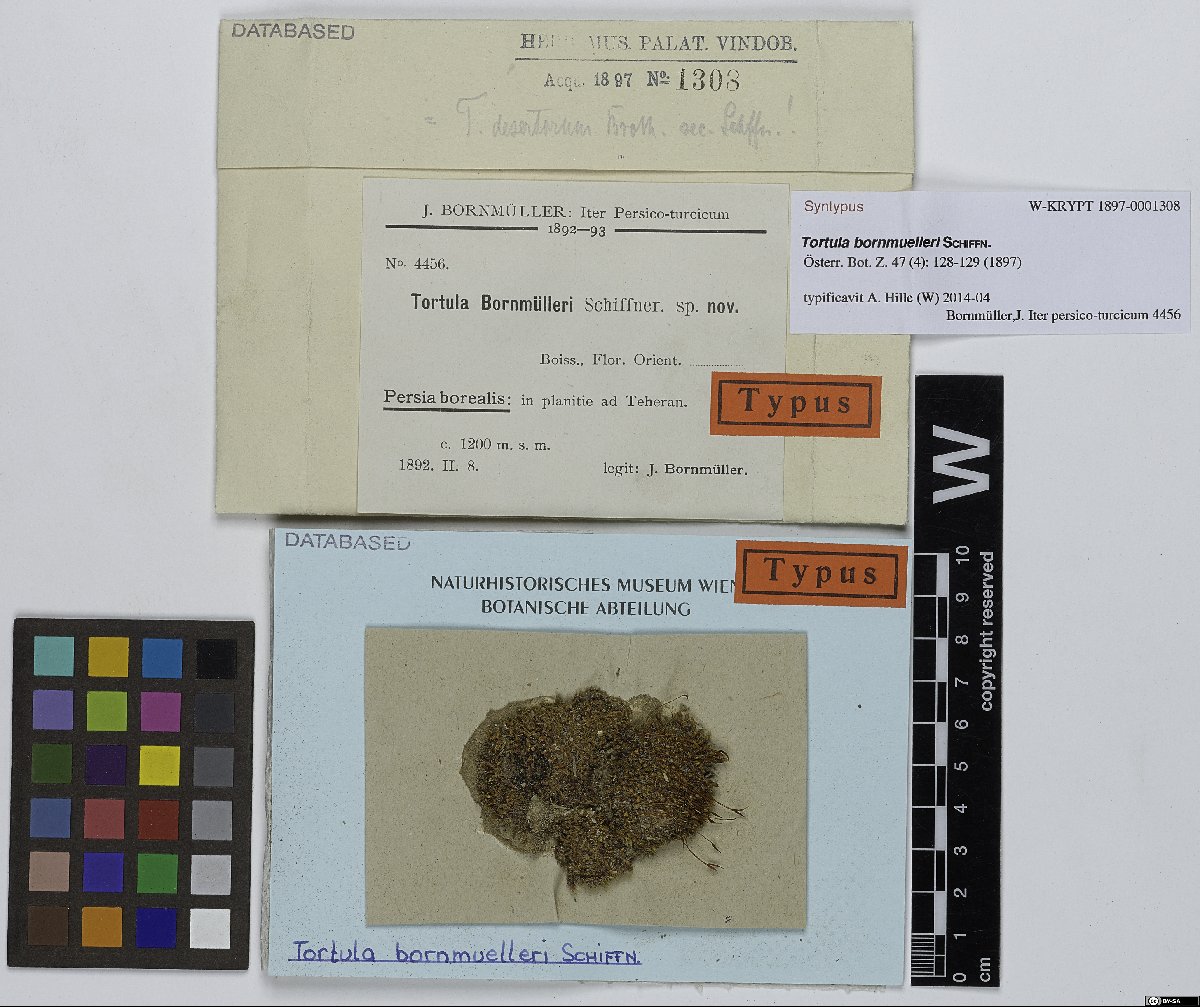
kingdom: Plantae
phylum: Bryophyta
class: Bryopsida
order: Pottiales
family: Pottiaceae
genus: Syntrichia
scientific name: Syntrichia caninervis
